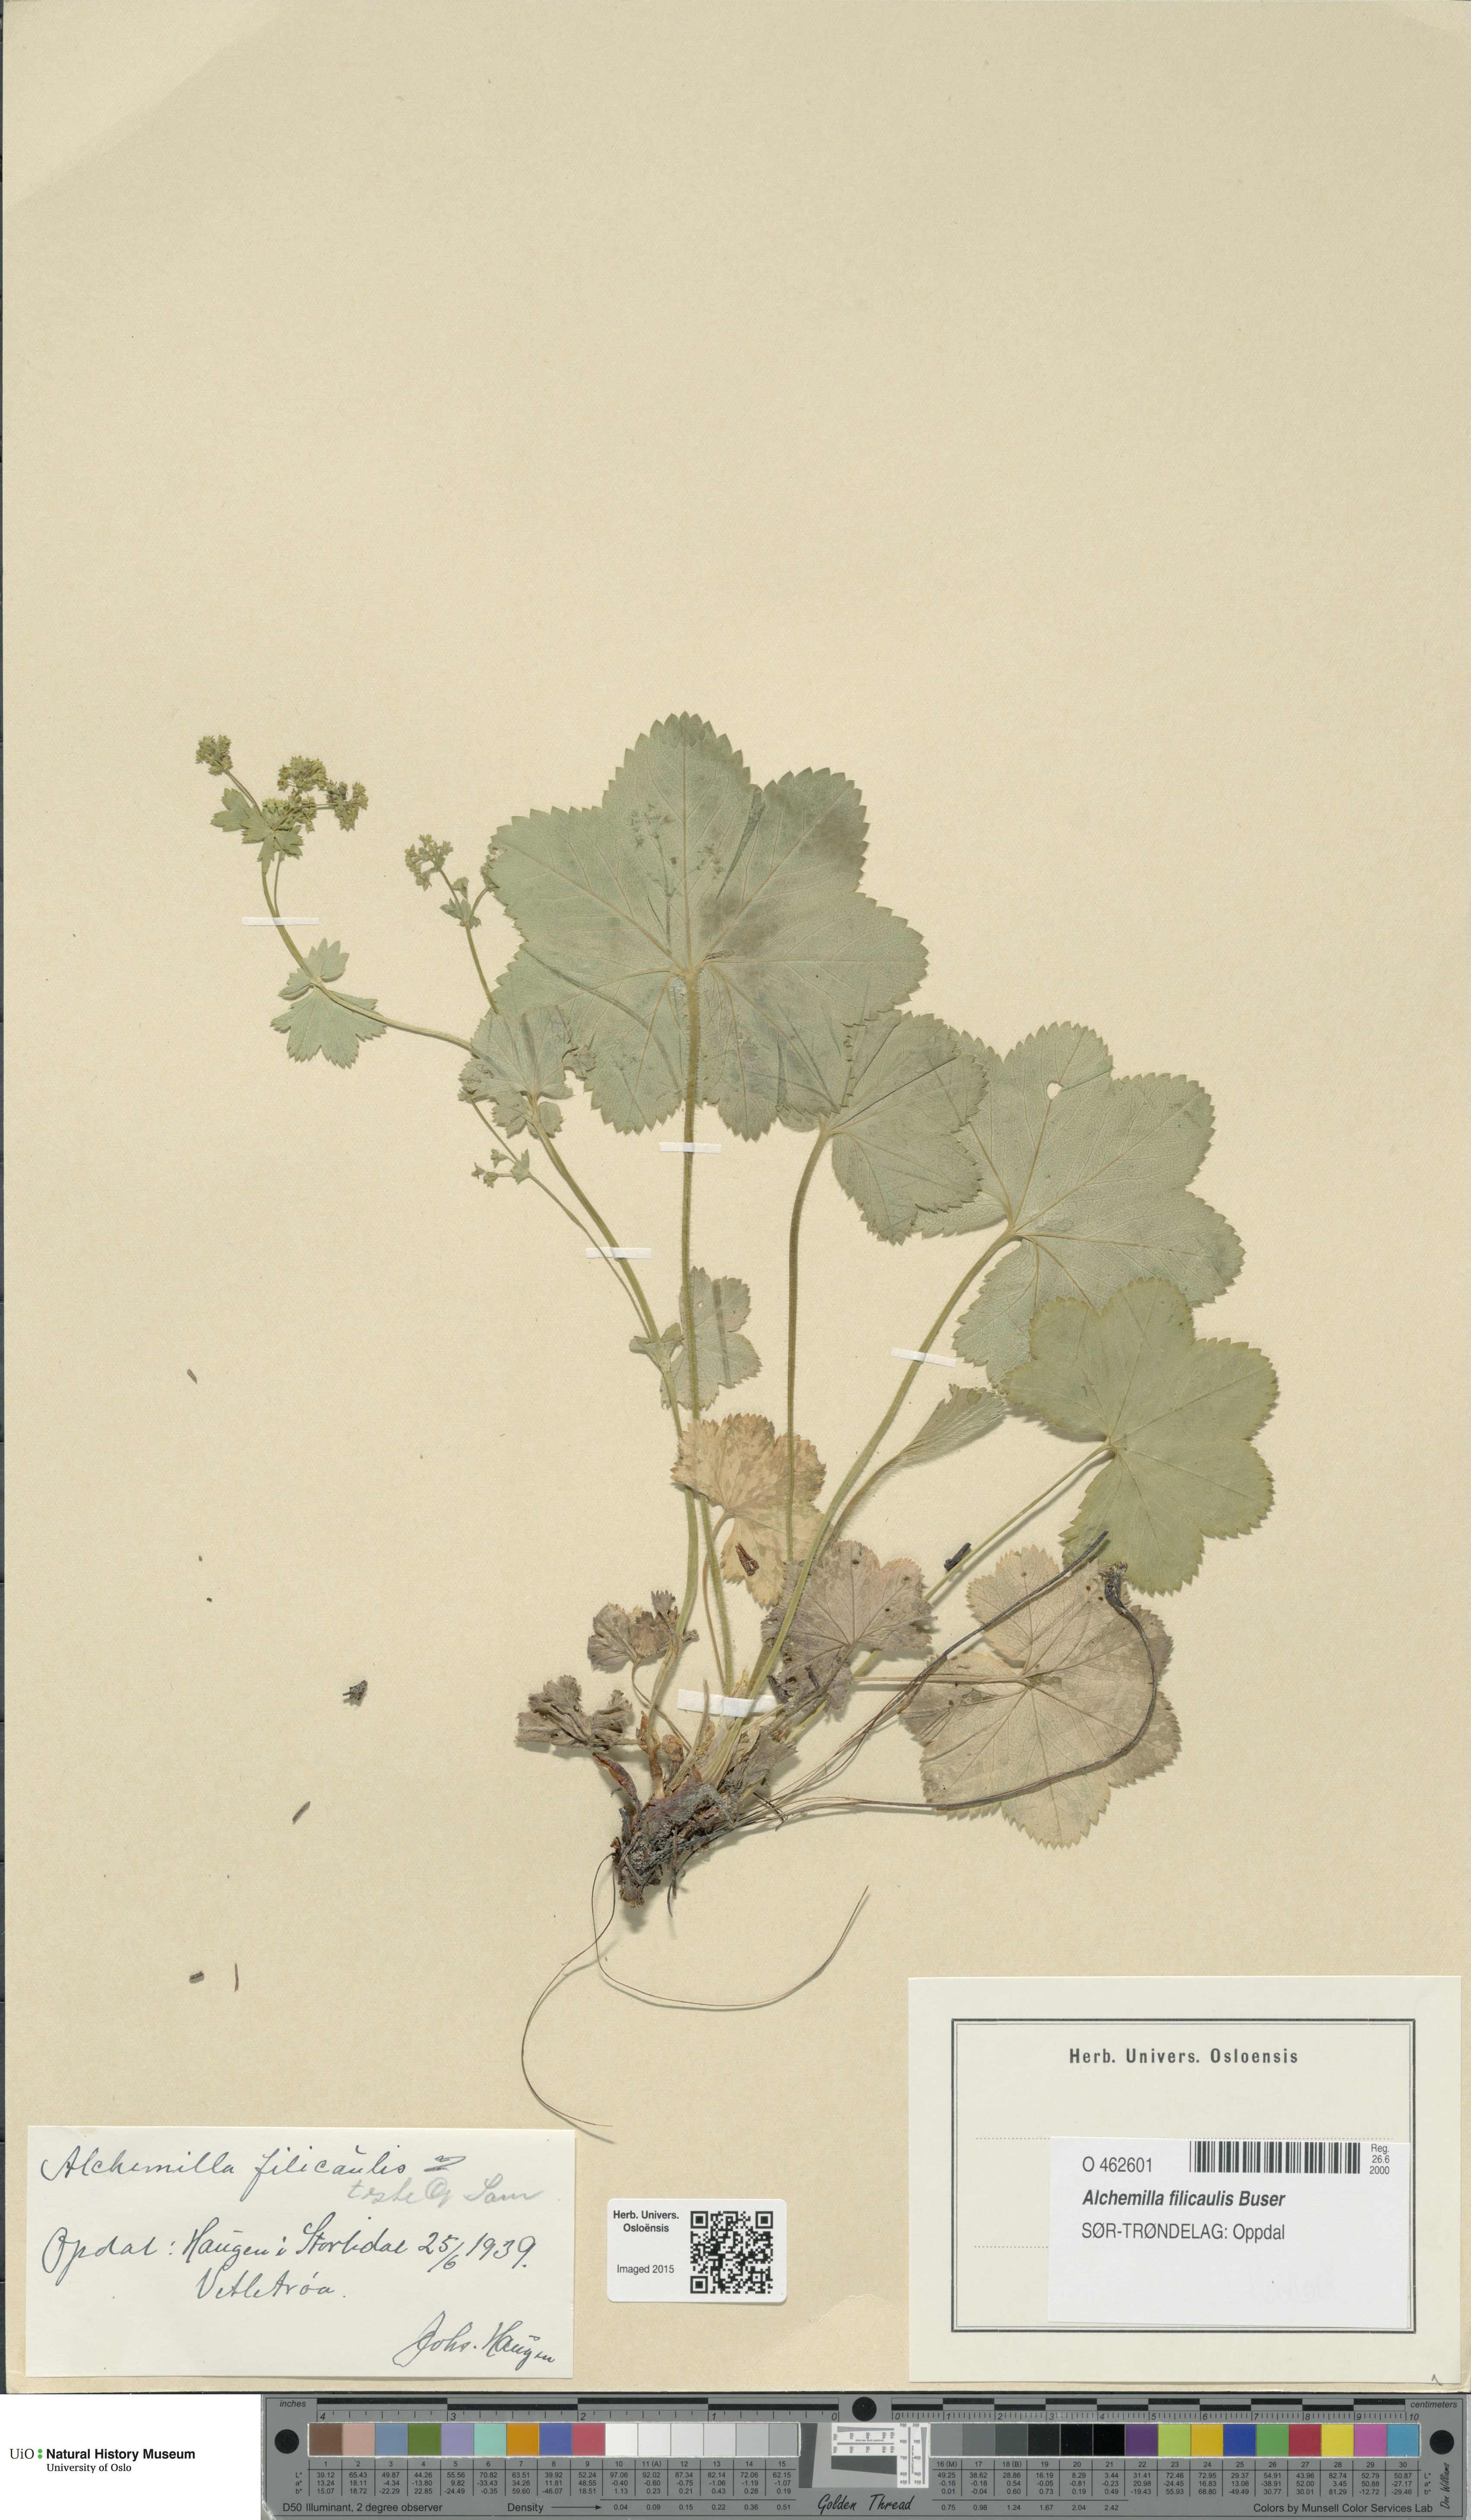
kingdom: Plantae
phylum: Tracheophyta
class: Magnoliopsida
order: Rosales
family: Rosaceae
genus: Alchemilla
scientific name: Alchemilla filicaulis
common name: Hairy lady's-mantle
